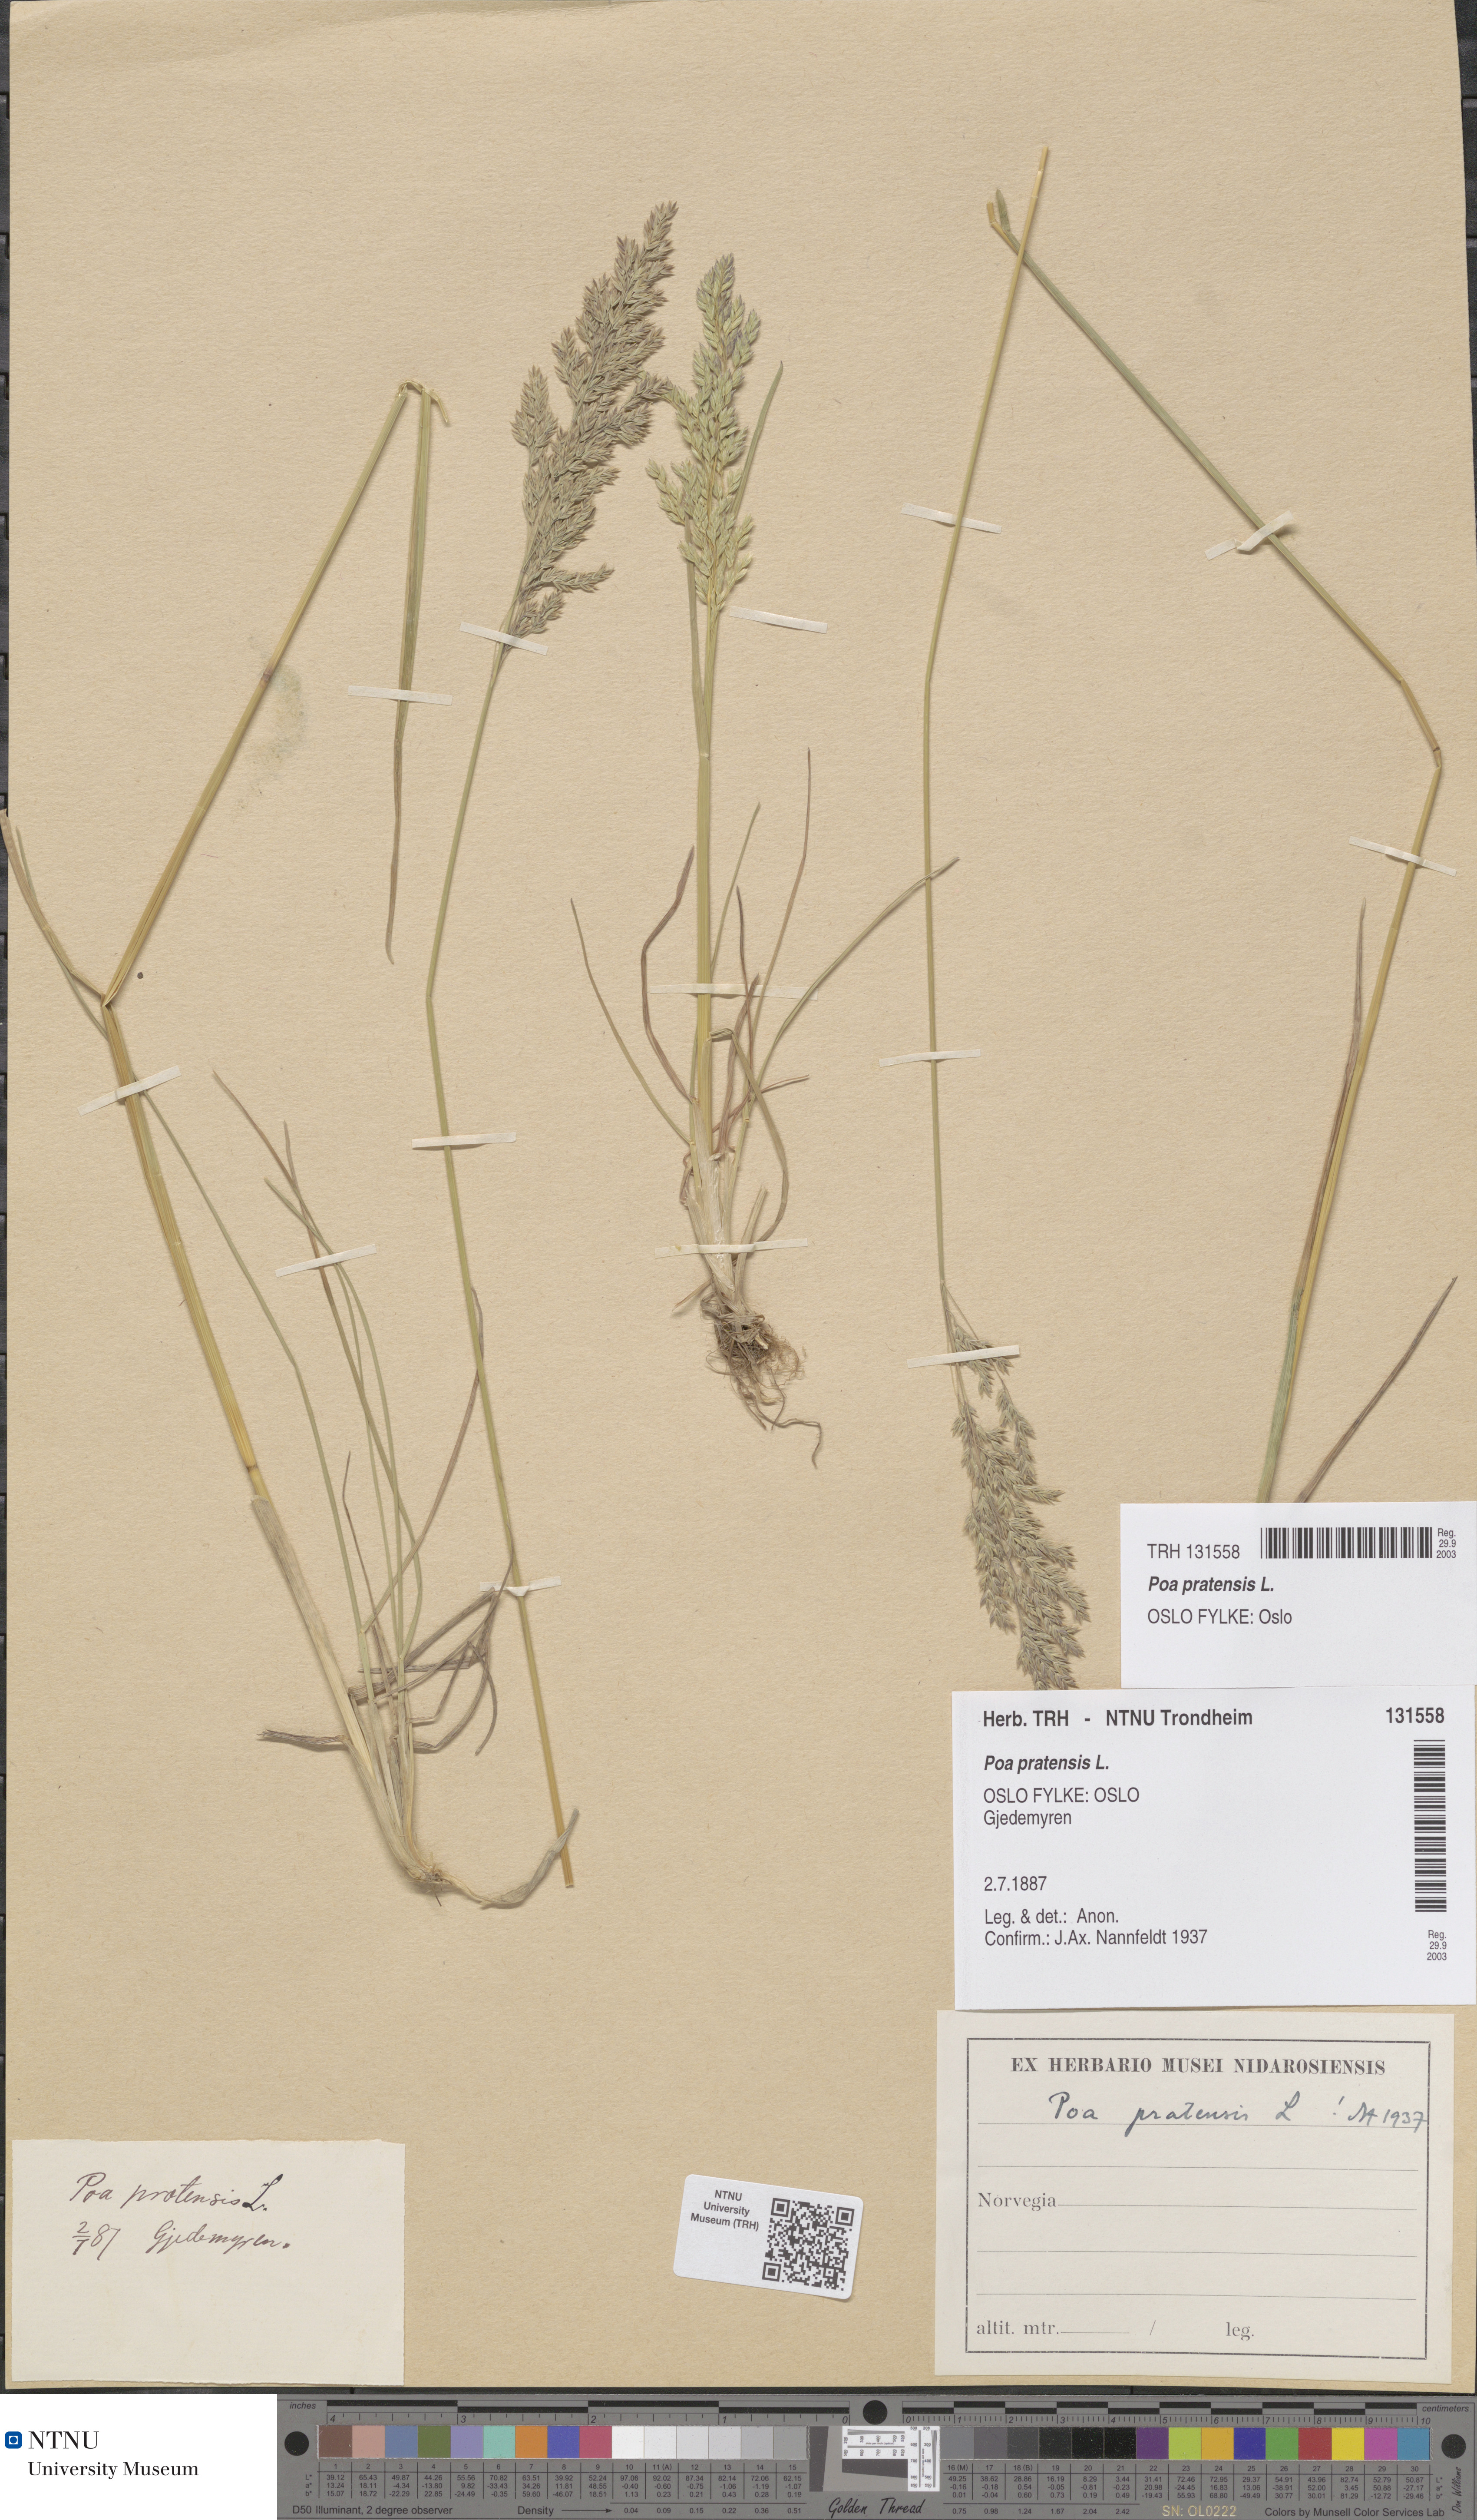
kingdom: Plantae
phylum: Tracheophyta
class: Liliopsida
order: Poales
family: Poaceae
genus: Poa
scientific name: Poa pratensis
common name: Kentucky bluegrass
